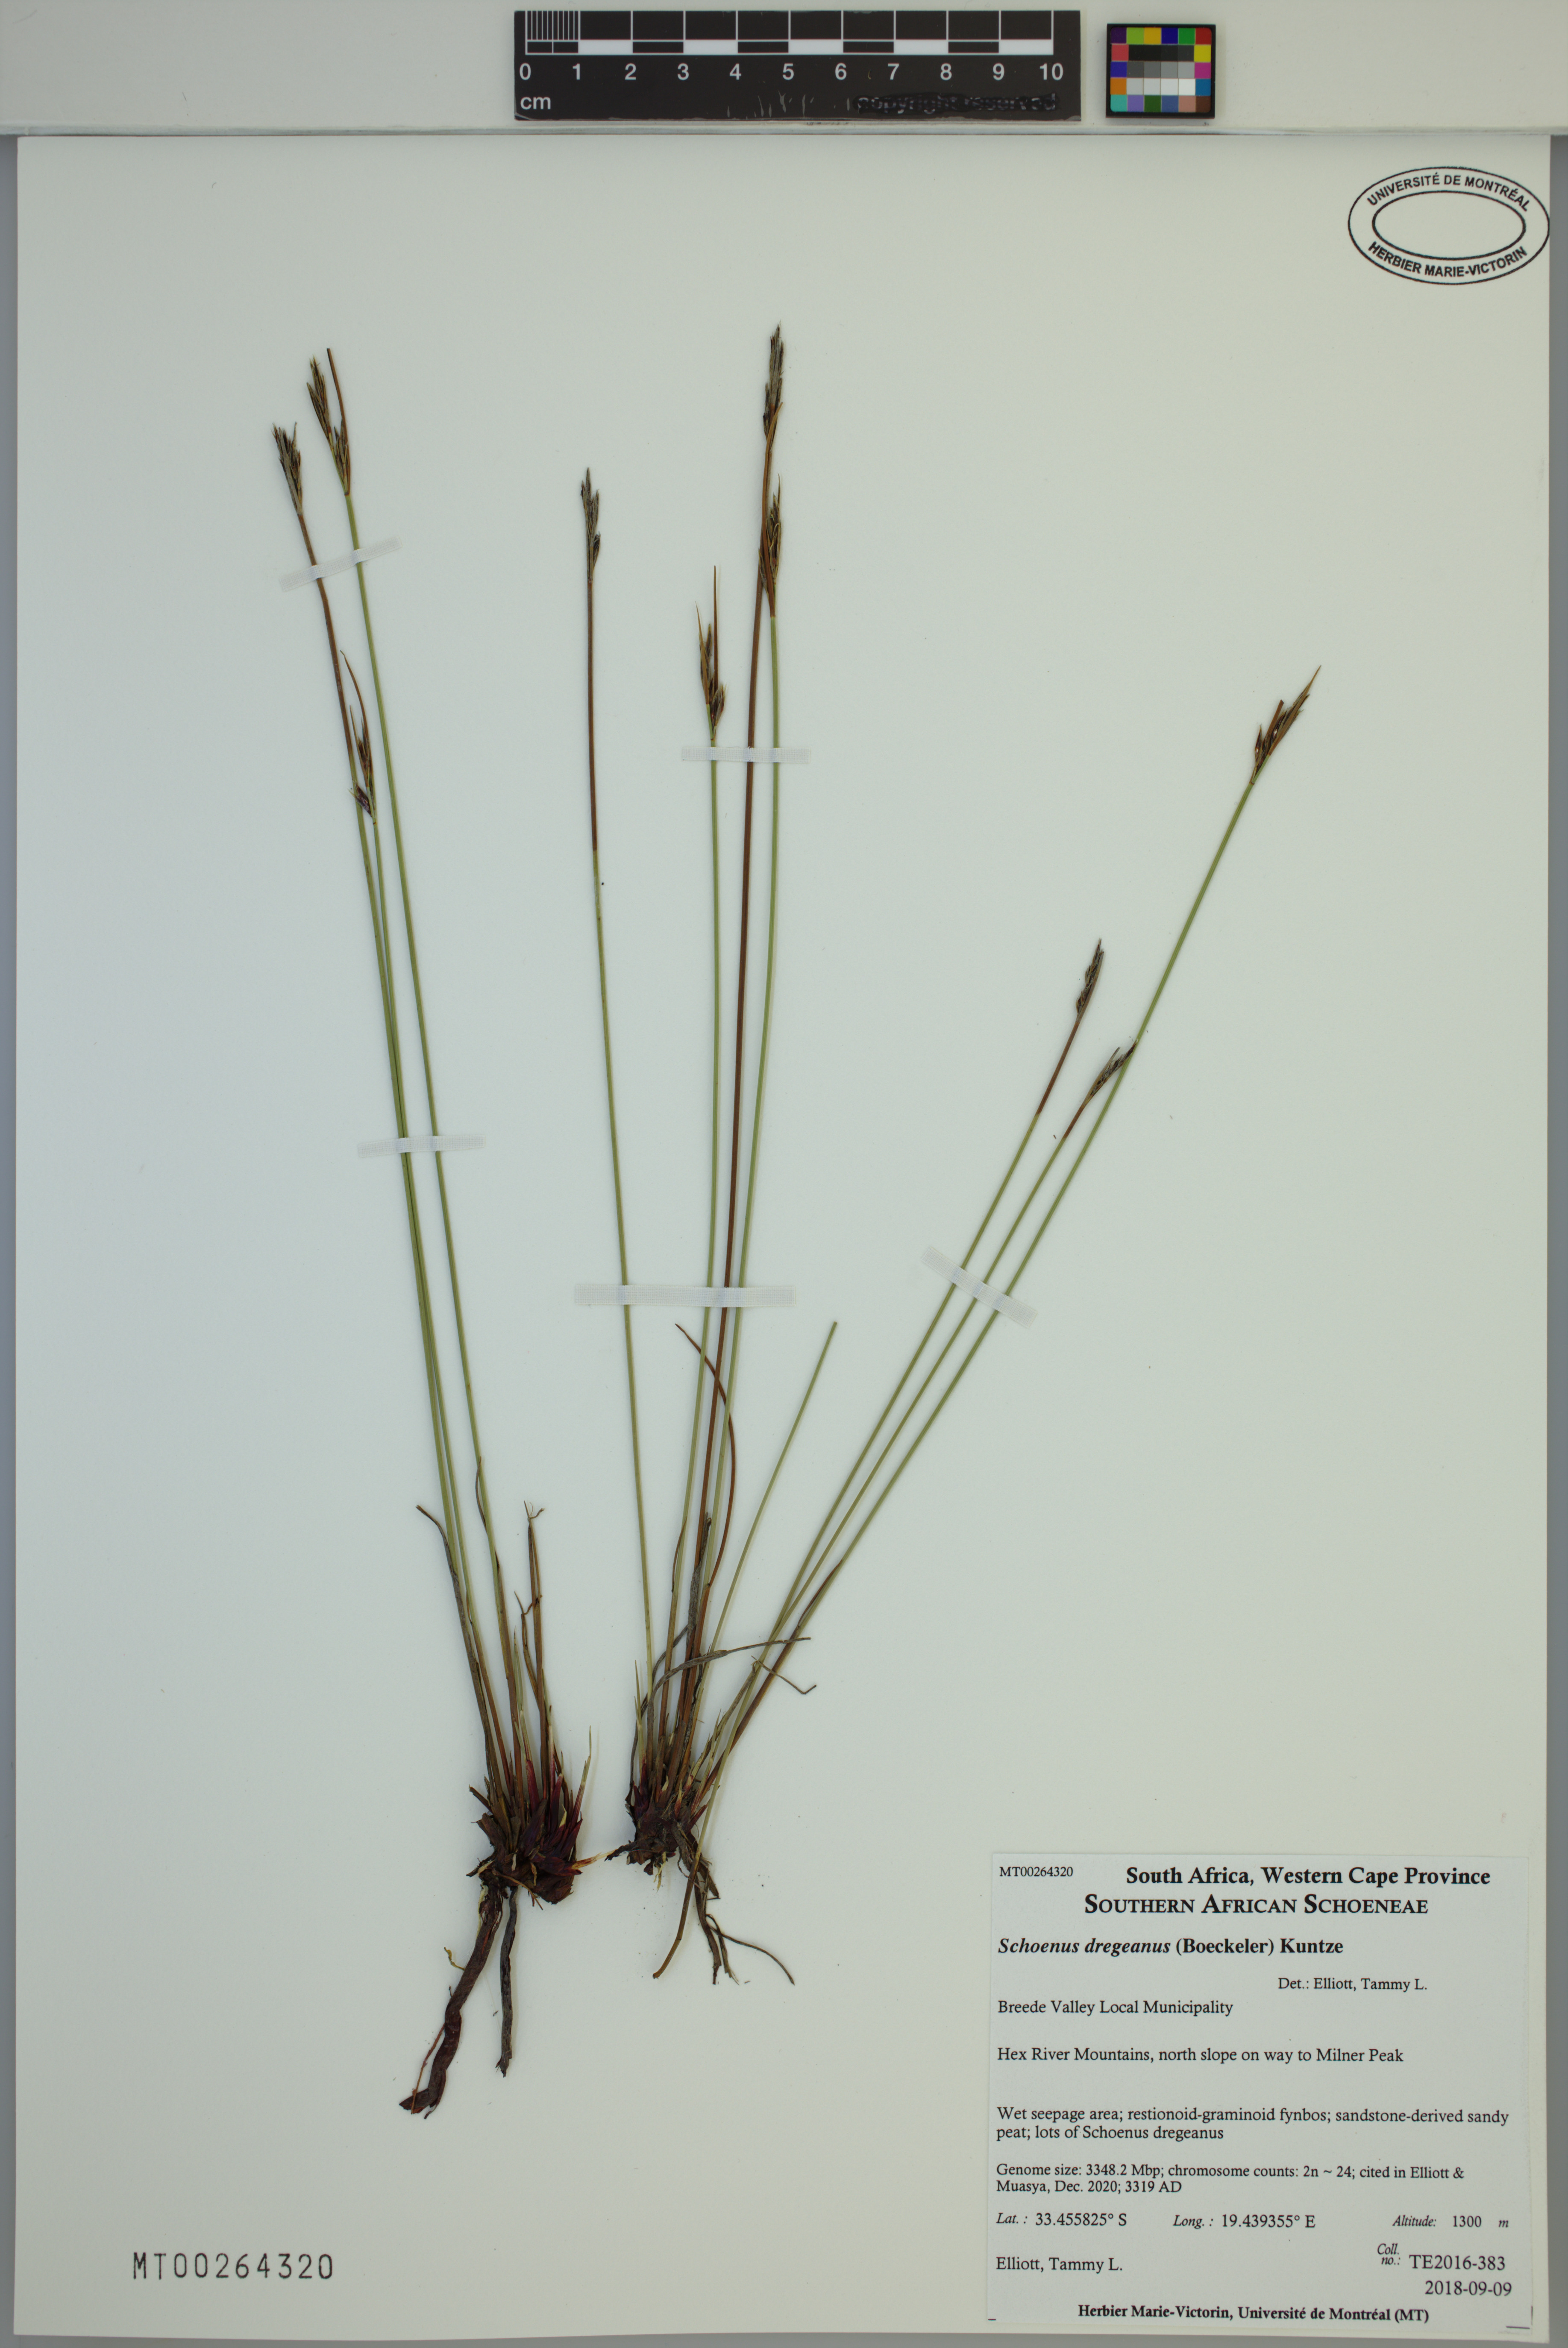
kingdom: Plantae
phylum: Tracheophyta
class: Liliopsida
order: Poales
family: Cyperaceae
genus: Schoenus
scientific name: Schoenus dregeanus
